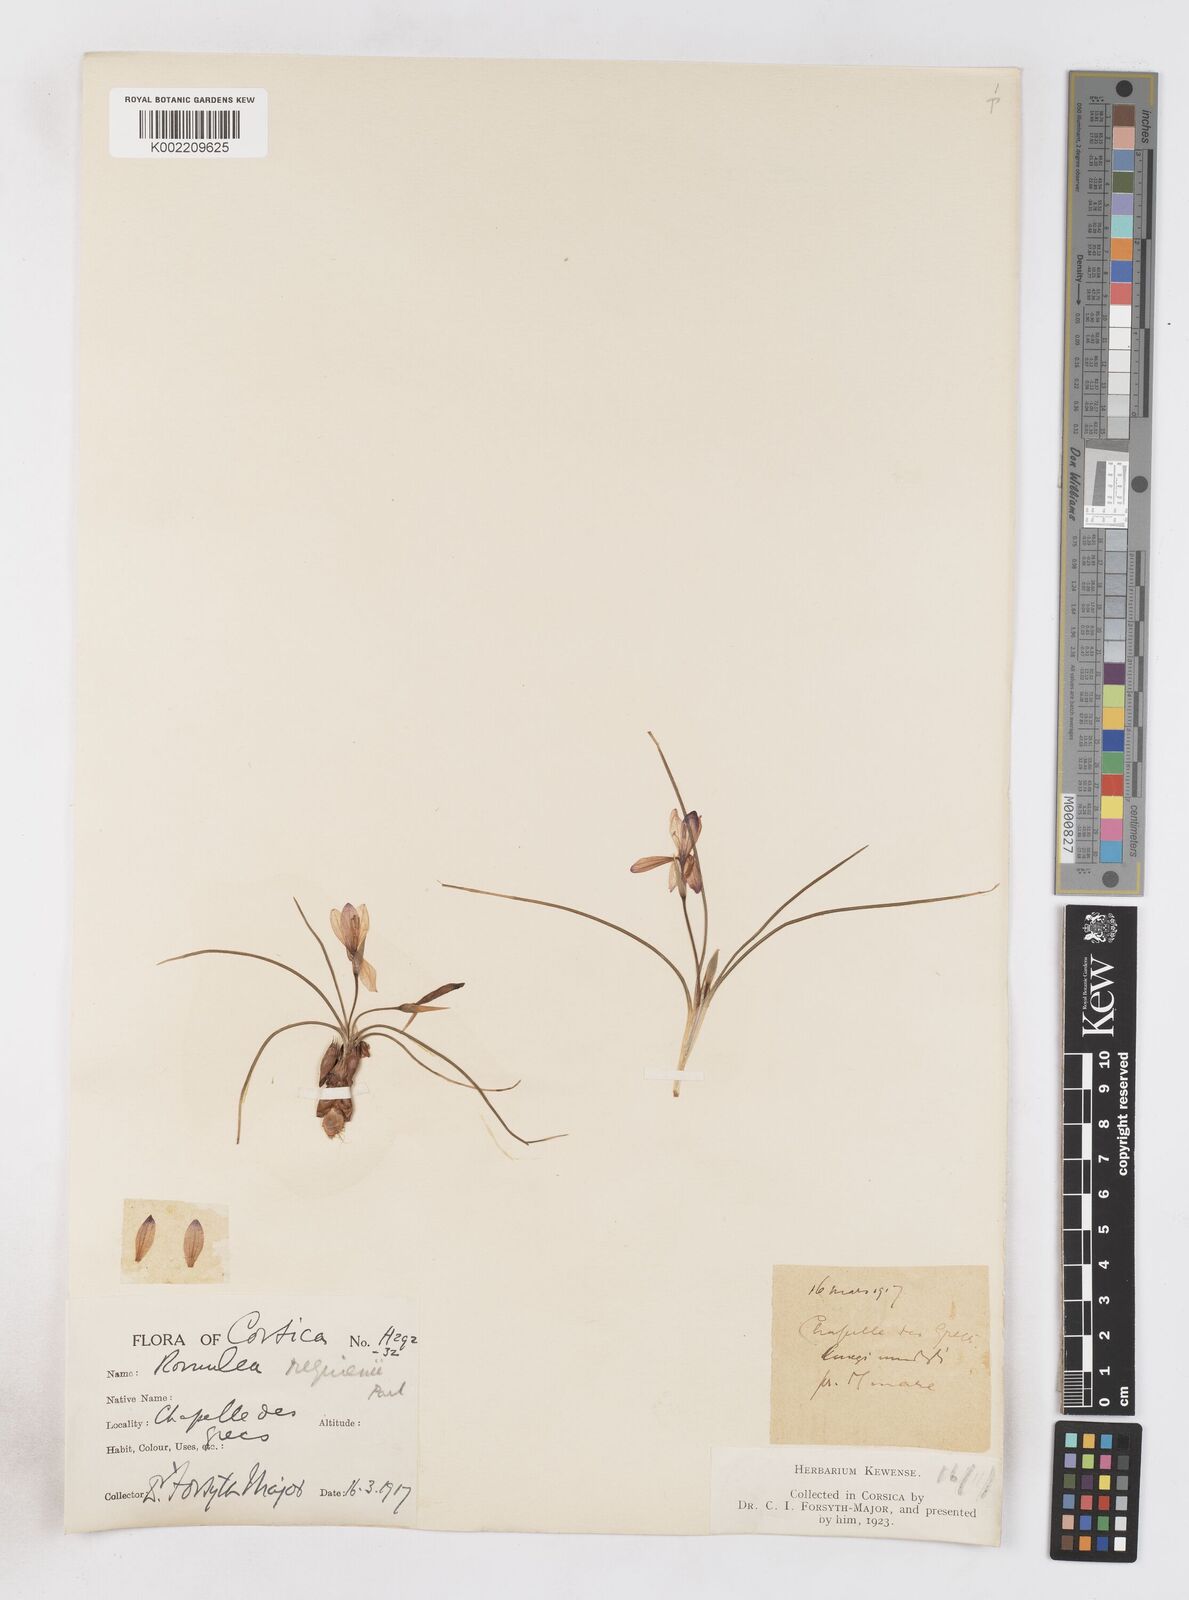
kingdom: Plantae
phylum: Tracheophyta
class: Liliopsida
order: Asparagales
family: Iridaceae
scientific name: Iridaceae
